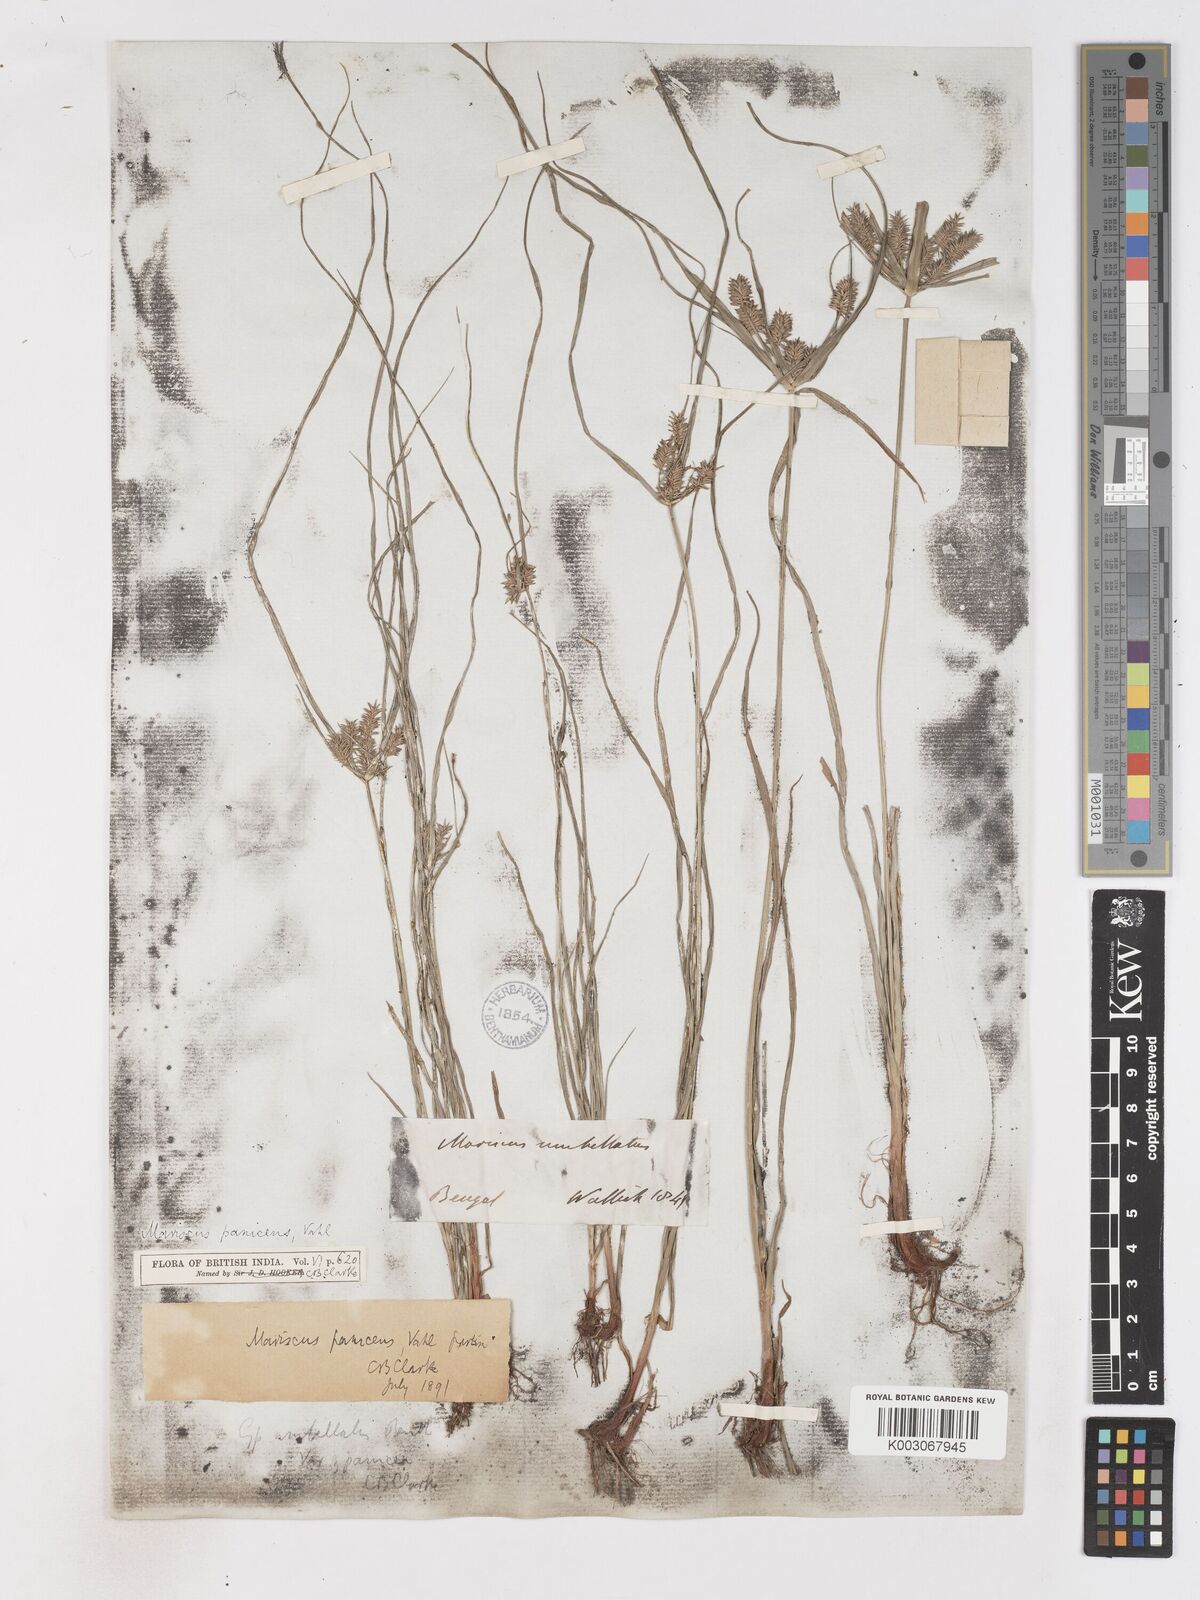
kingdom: Plantae
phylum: Tracheophyta
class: Liliopsida
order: Poales
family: Cyperaceae
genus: Cyperus
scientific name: Cyperus paniceus
